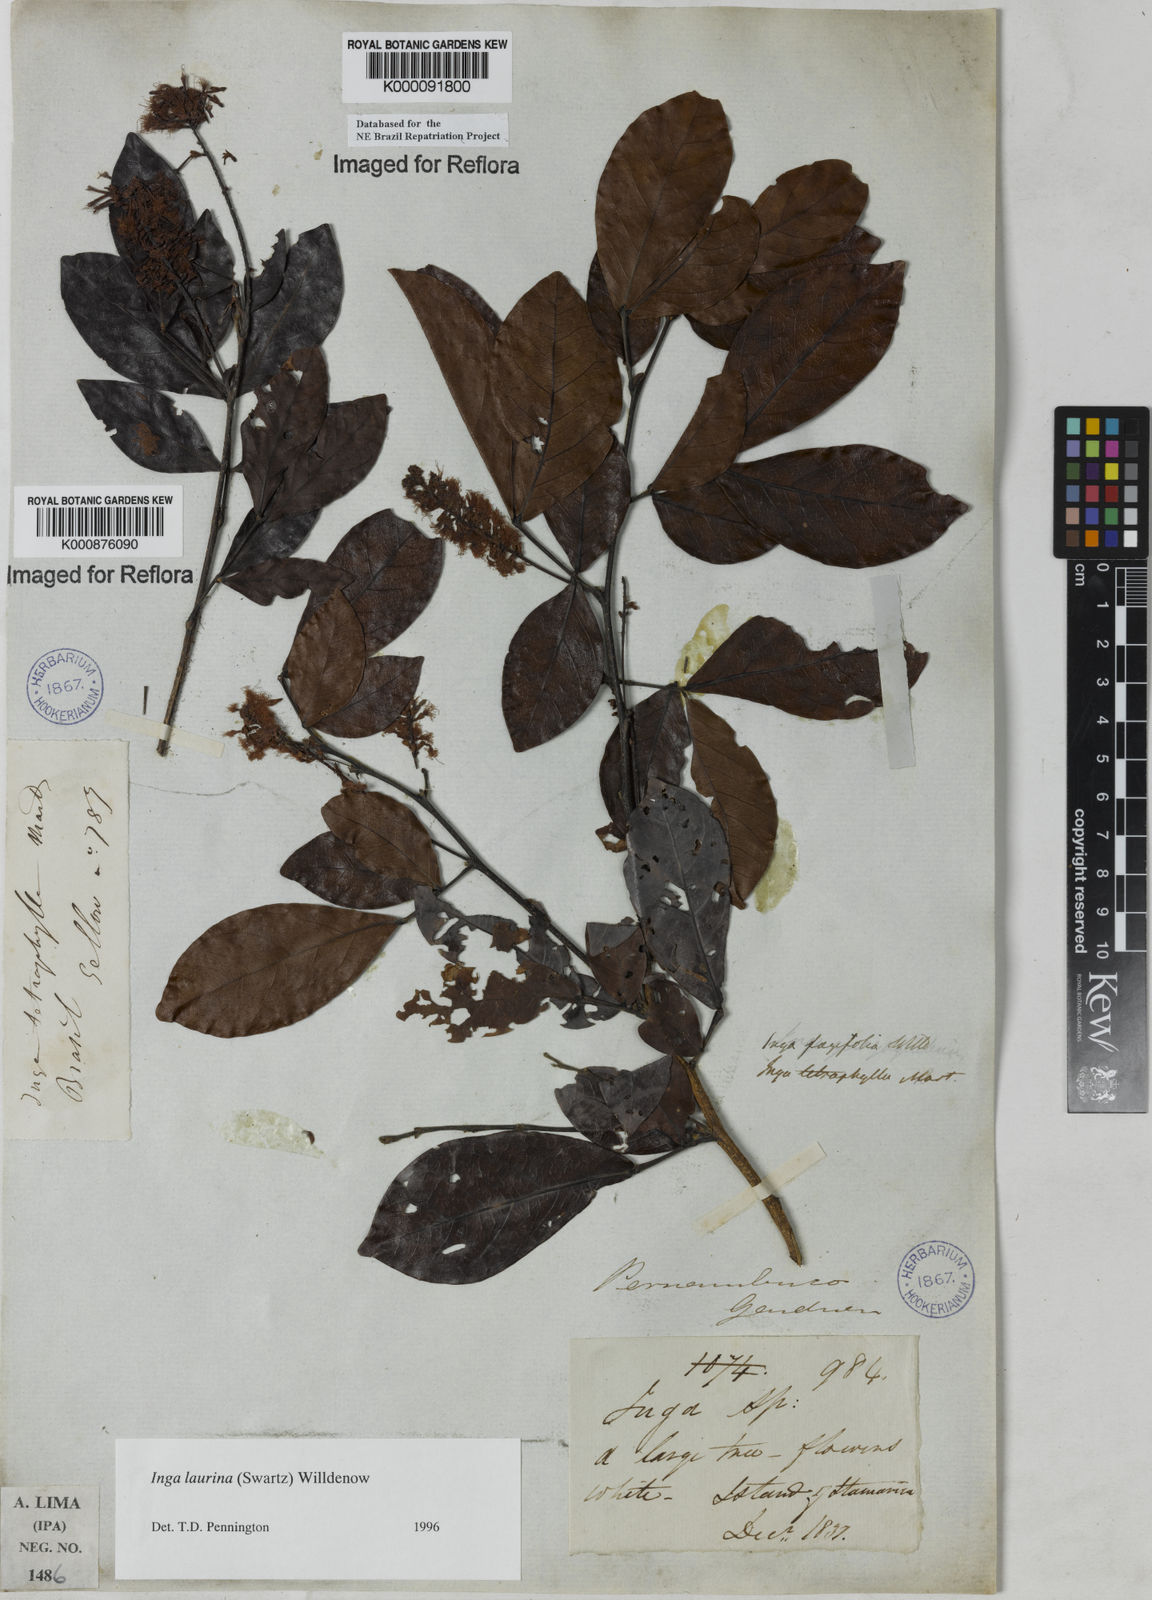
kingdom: Plantae
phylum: Tracheophyta
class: Magnoliopsida
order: Fabales
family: Fabaceae
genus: Inga
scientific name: Inga laurina
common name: Red wood
